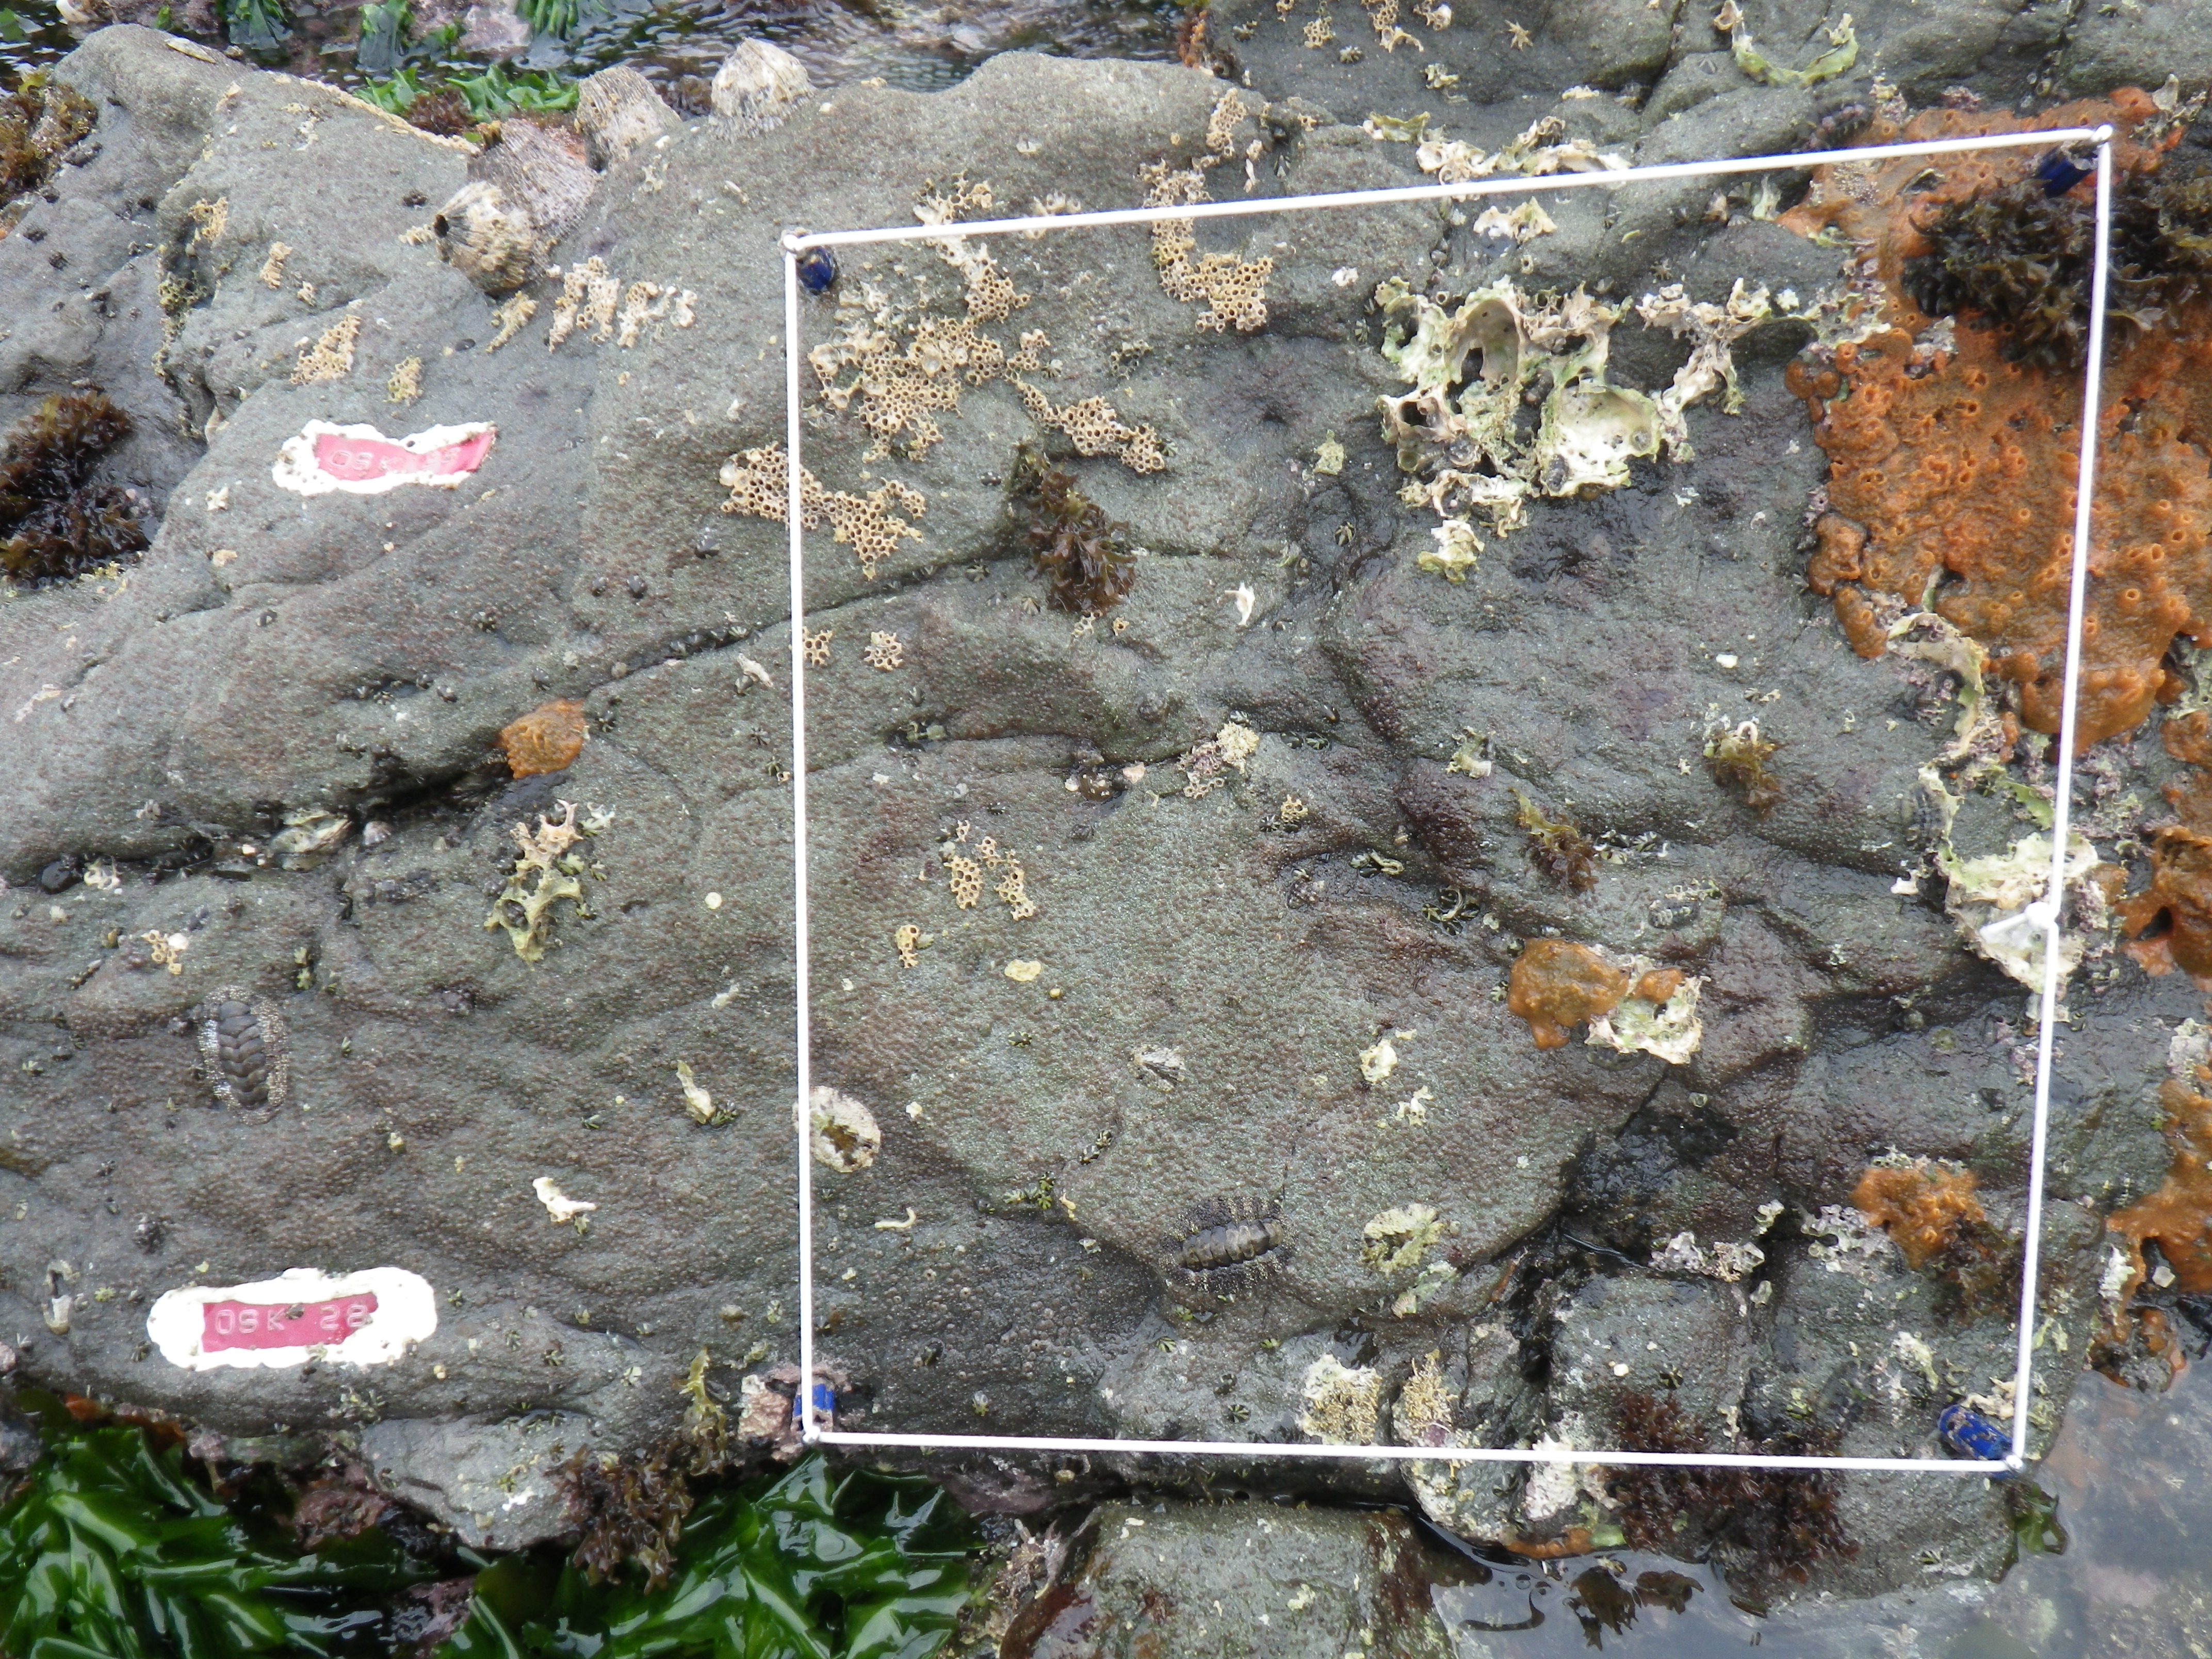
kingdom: Animalia
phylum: Arthropoda
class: Maxillopoda
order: Sessilia
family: Chthamalidae
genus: Chthamalus
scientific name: Chthamalus challengeri
